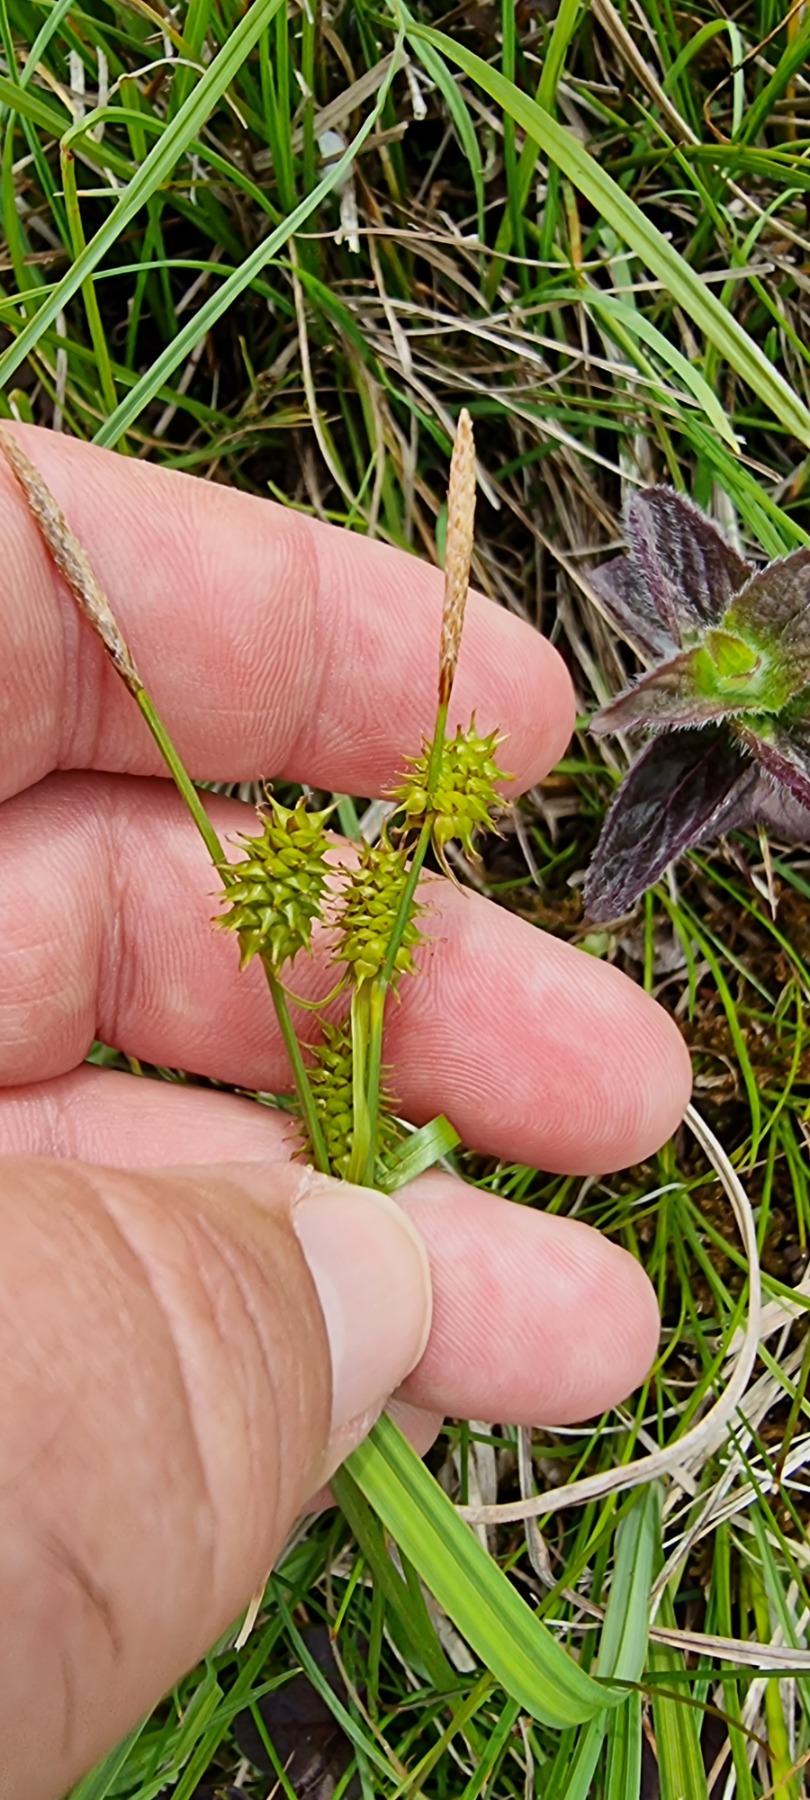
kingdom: Plantae
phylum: Tracheophyta
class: Liliopsida
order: Poales
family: Cyperaceae
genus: Carex
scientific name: Carex lepidocarpa
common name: Krognæb-star
